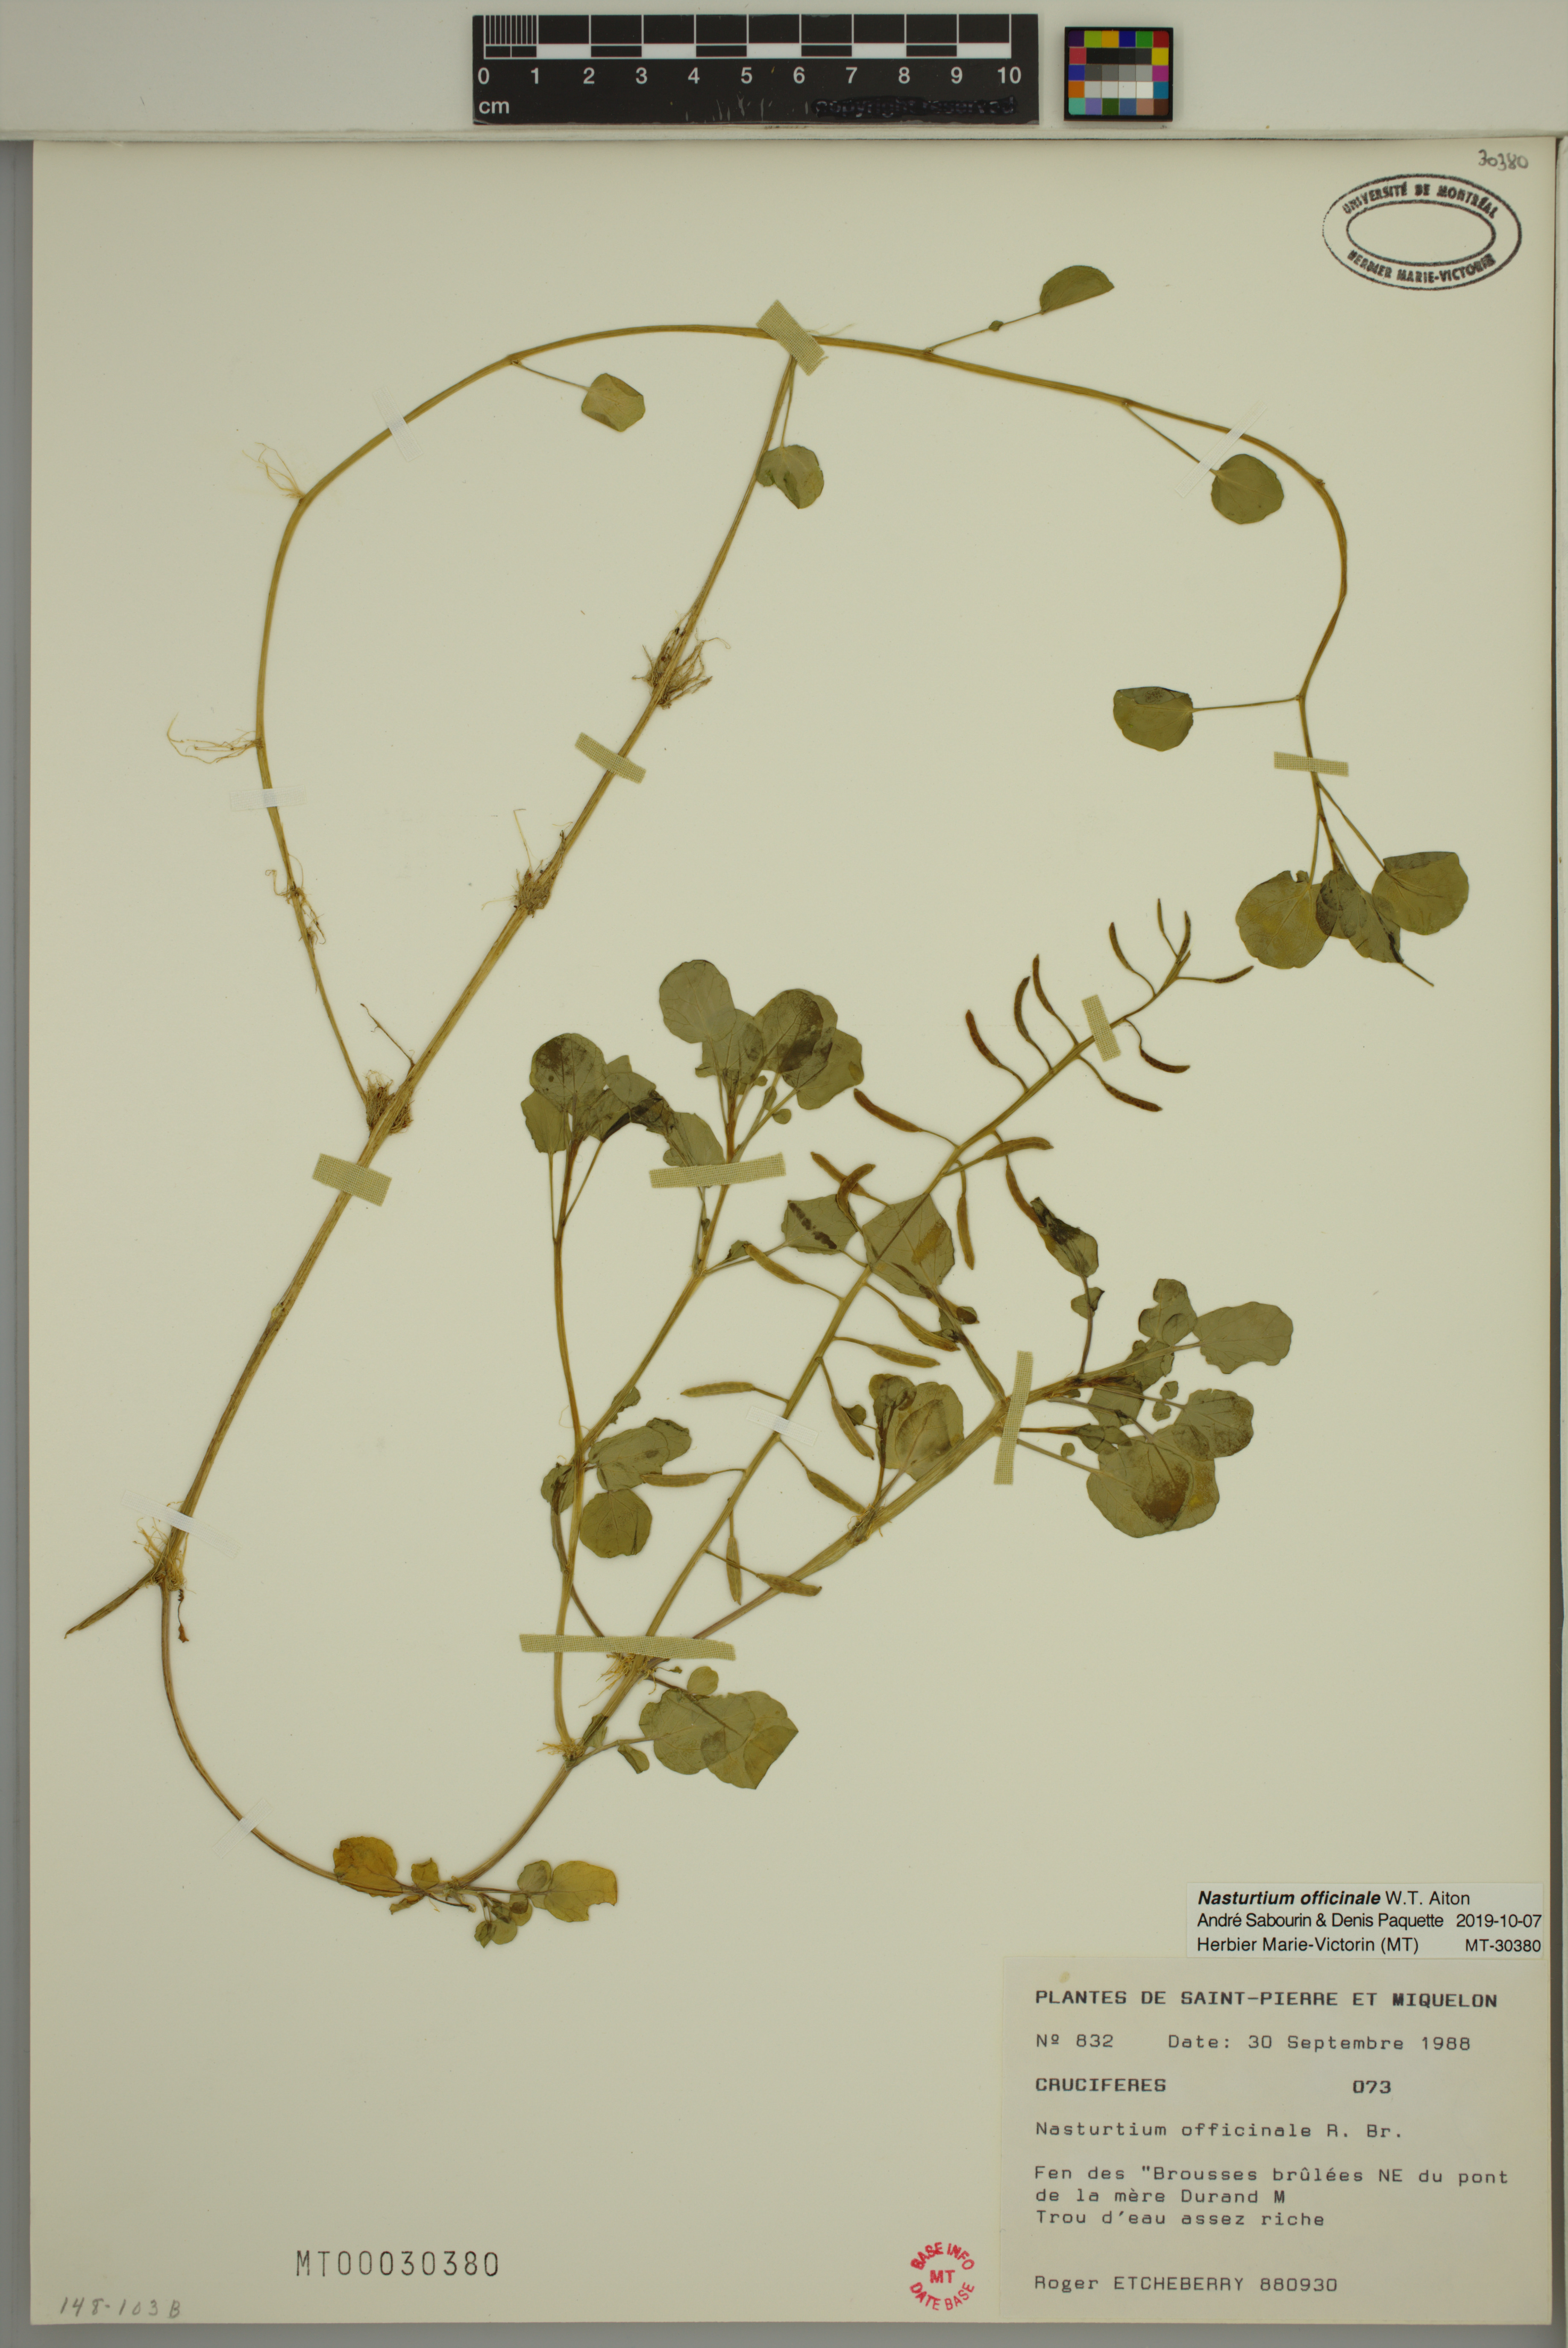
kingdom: Plantae
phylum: Tracheophyta
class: Magnoliopsida
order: Brassicales
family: Brassicaceae
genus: Nasturtium
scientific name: Nasturtium officinale
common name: Watercress
